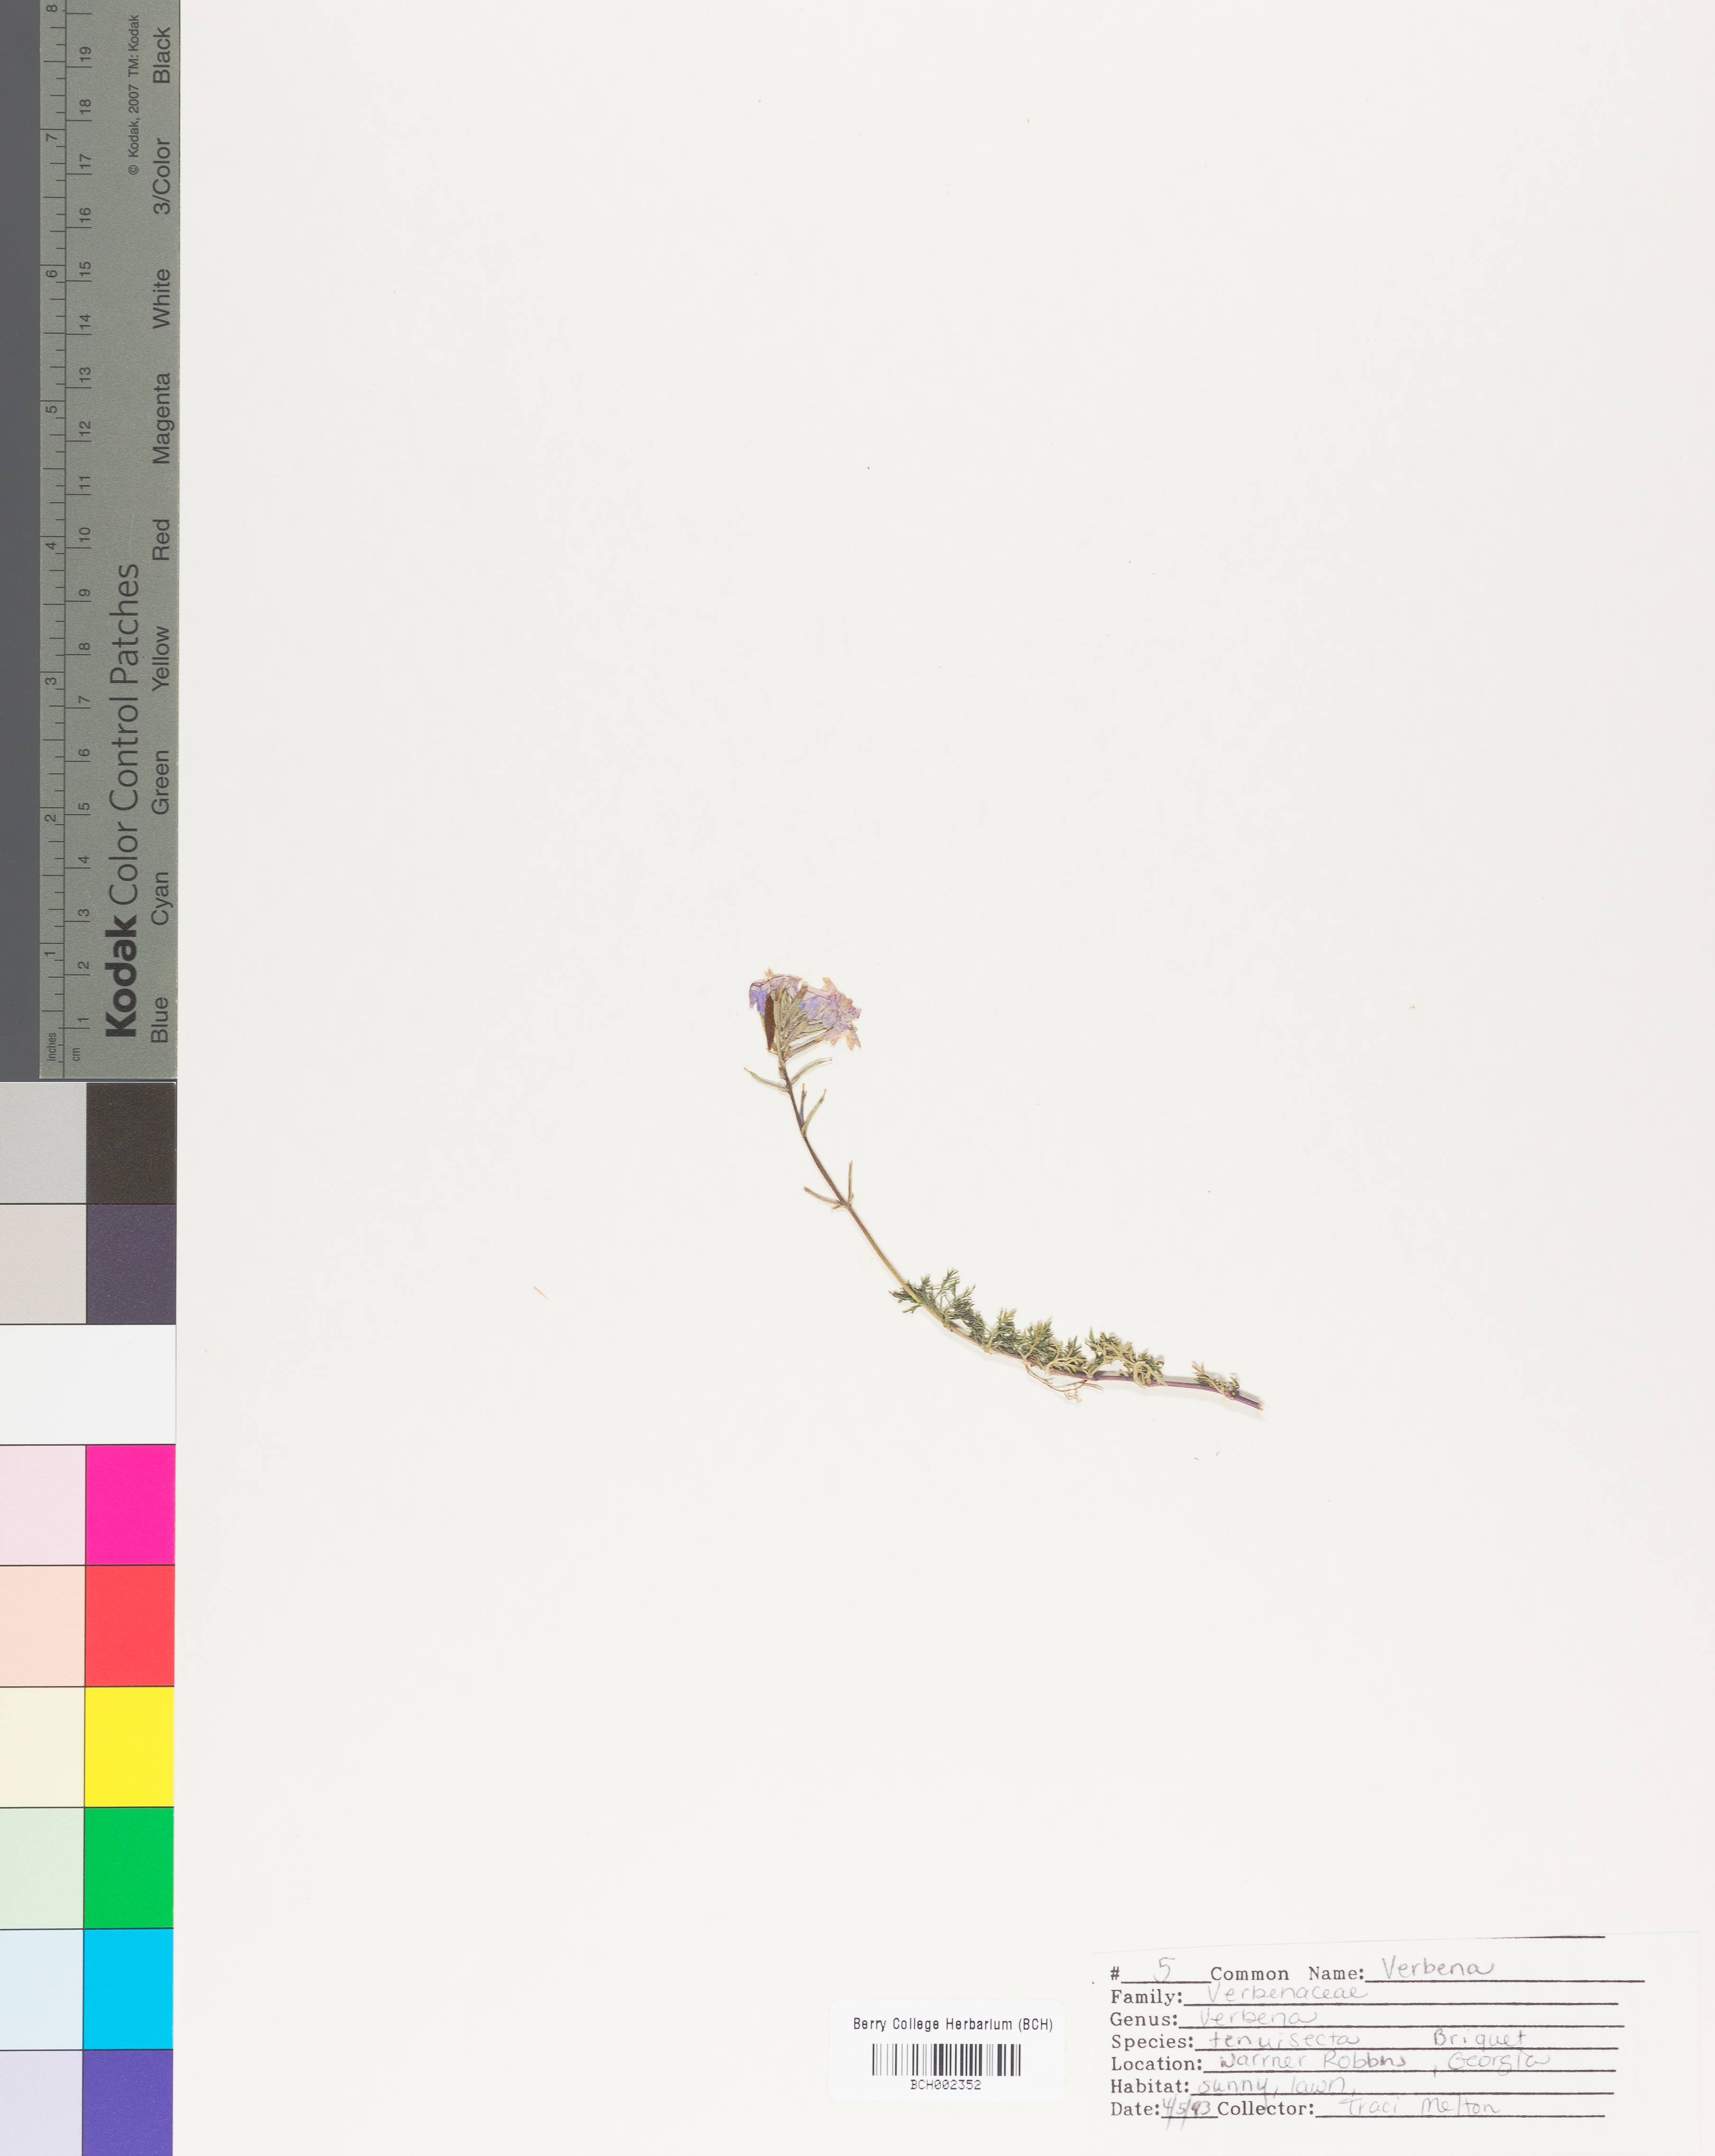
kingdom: Plantae
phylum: Tracheophyta
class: Magnoliopsida
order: Lamiales
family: Verbenaceae
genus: Verbena
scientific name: Verbena aristigera
